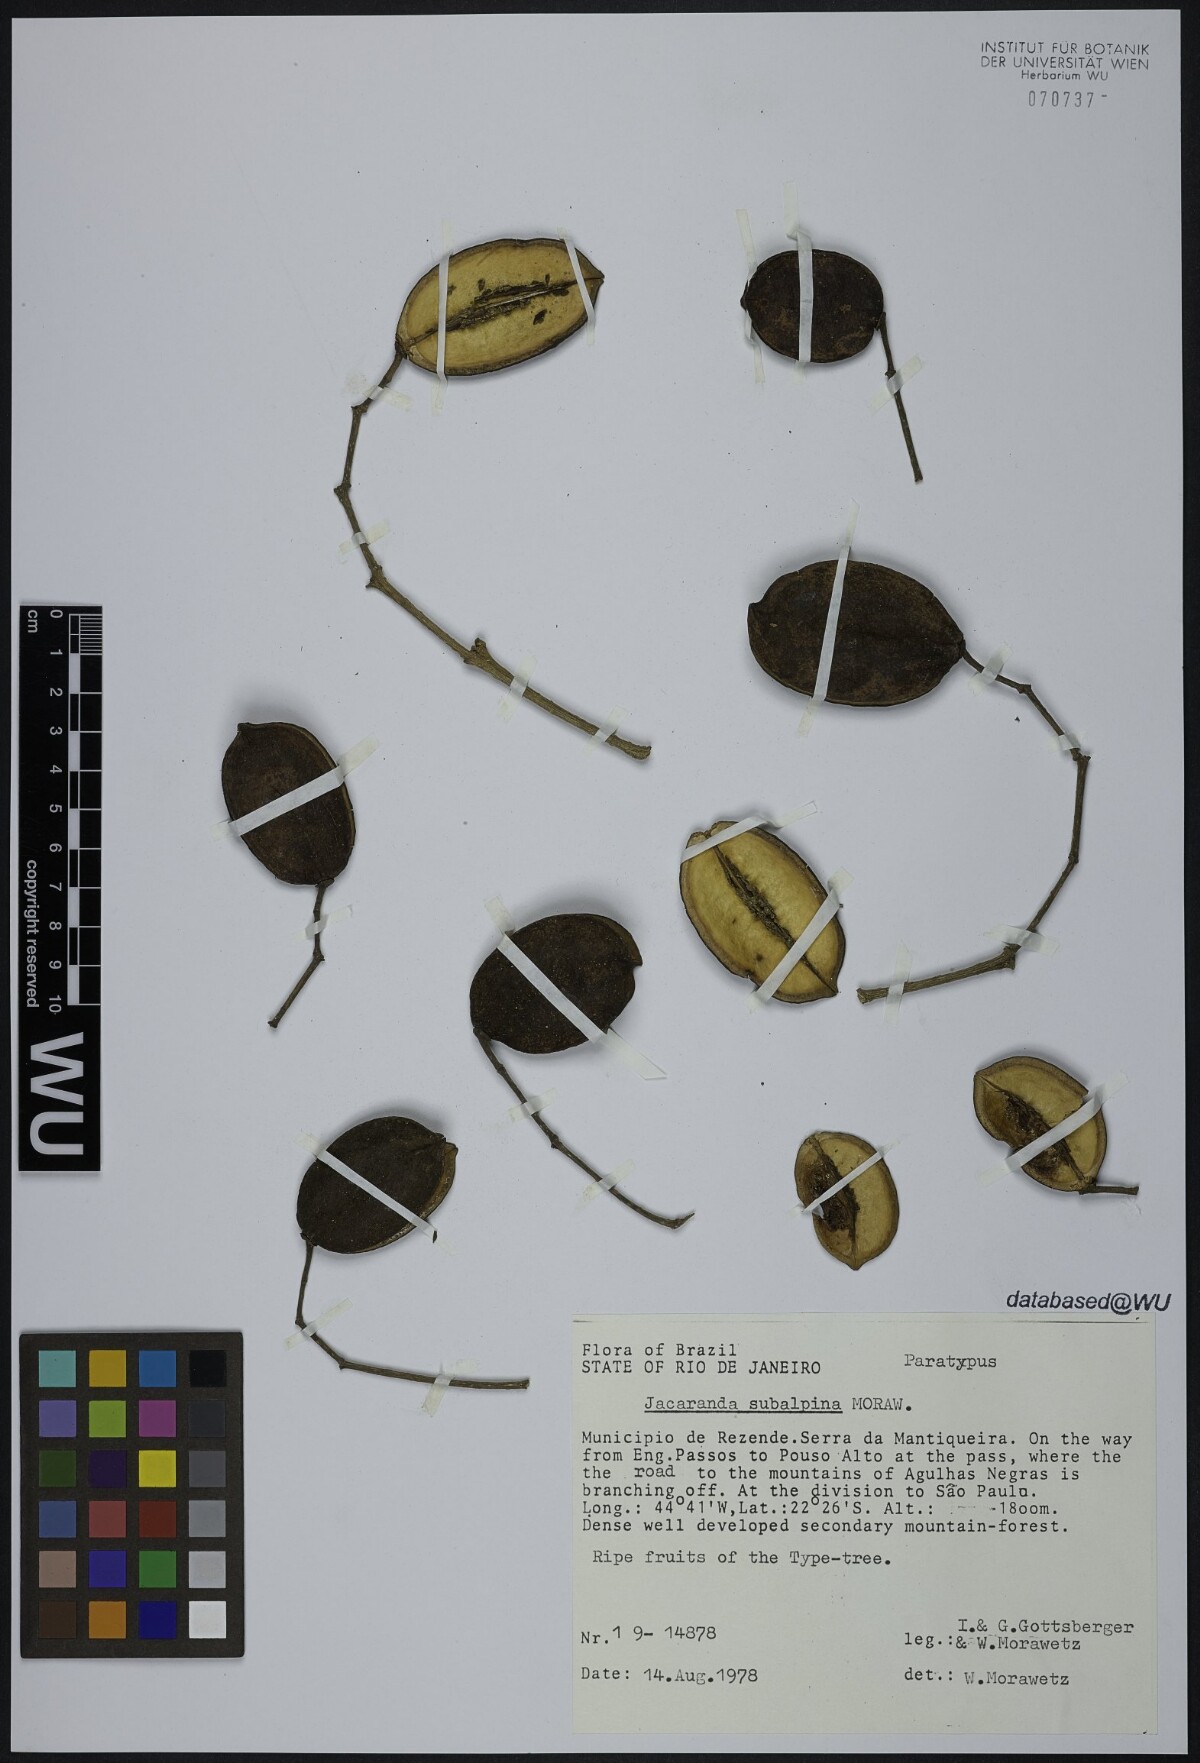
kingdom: Plantae
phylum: Tracheophyta
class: Magnoliopsida
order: Lamiales
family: Bignoniaceae
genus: Jacaranda
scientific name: Jacaranda subalpina
